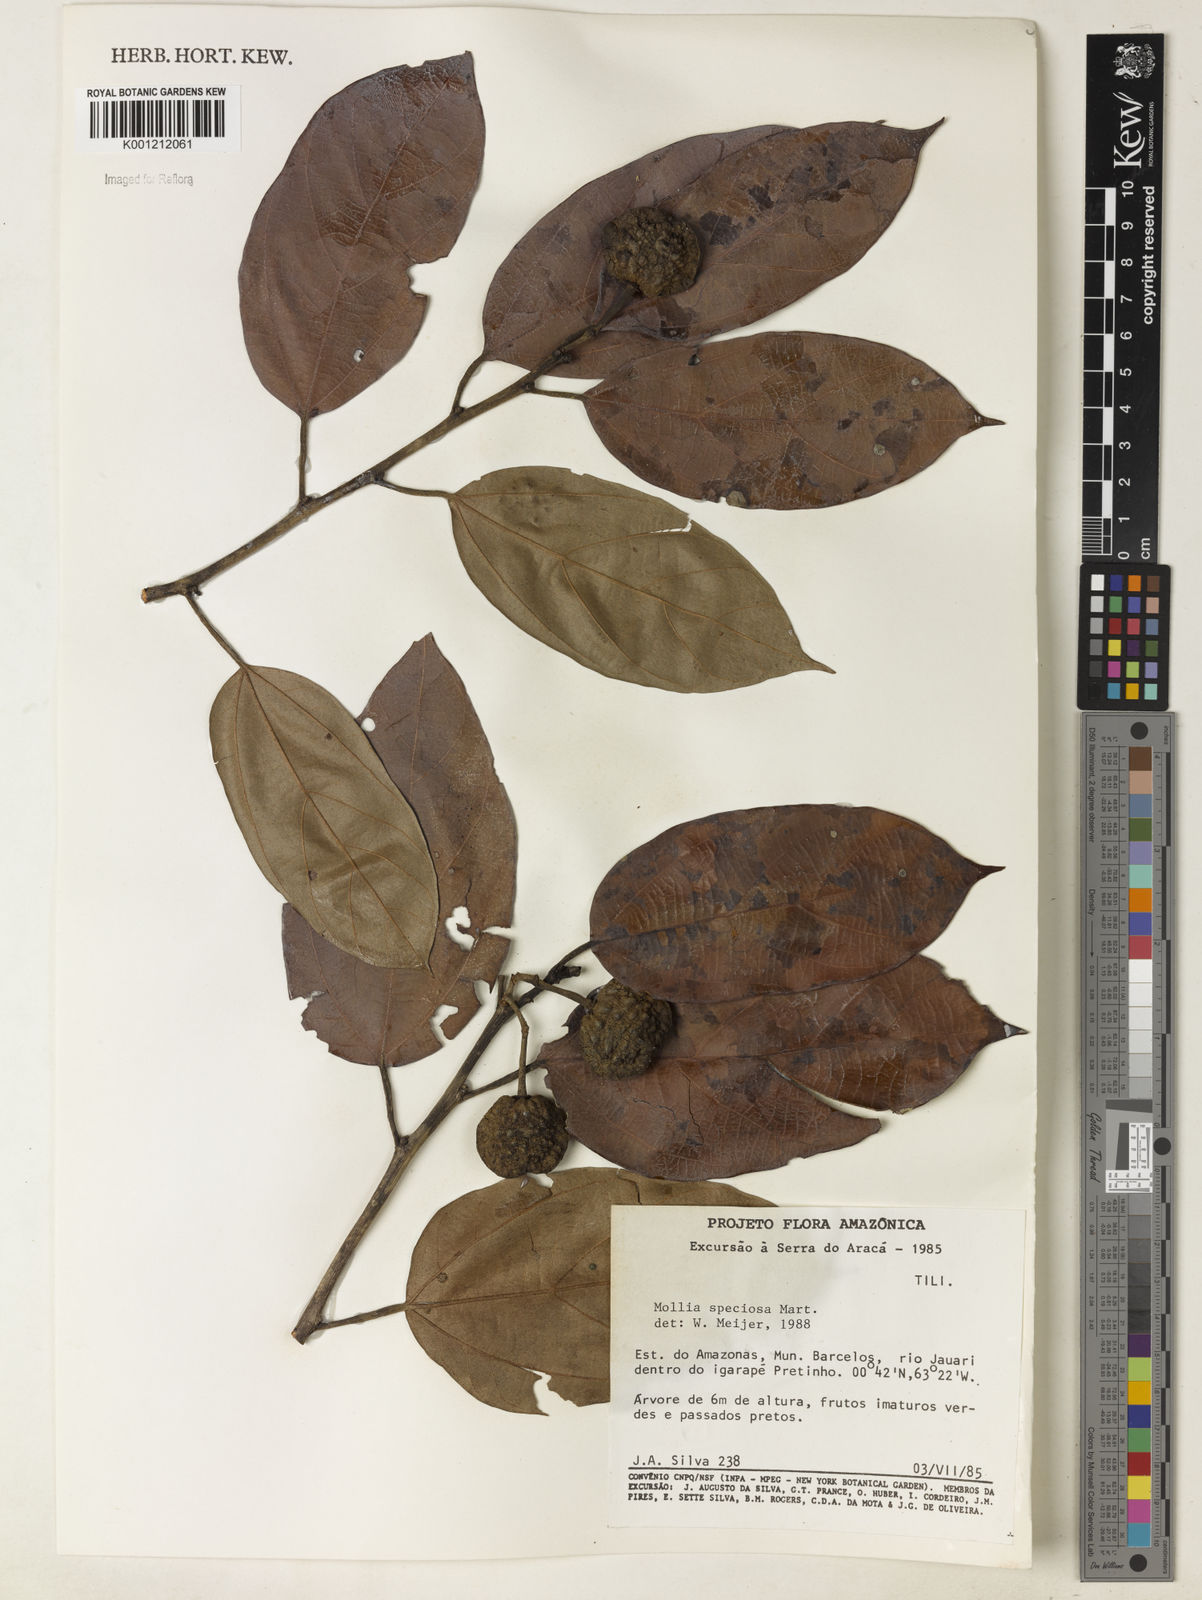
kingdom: Plantae
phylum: Tracheophyta
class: Magnoliopsida
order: Malvales
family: Malvaceae
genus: Mollia
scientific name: Mollia speciosa
